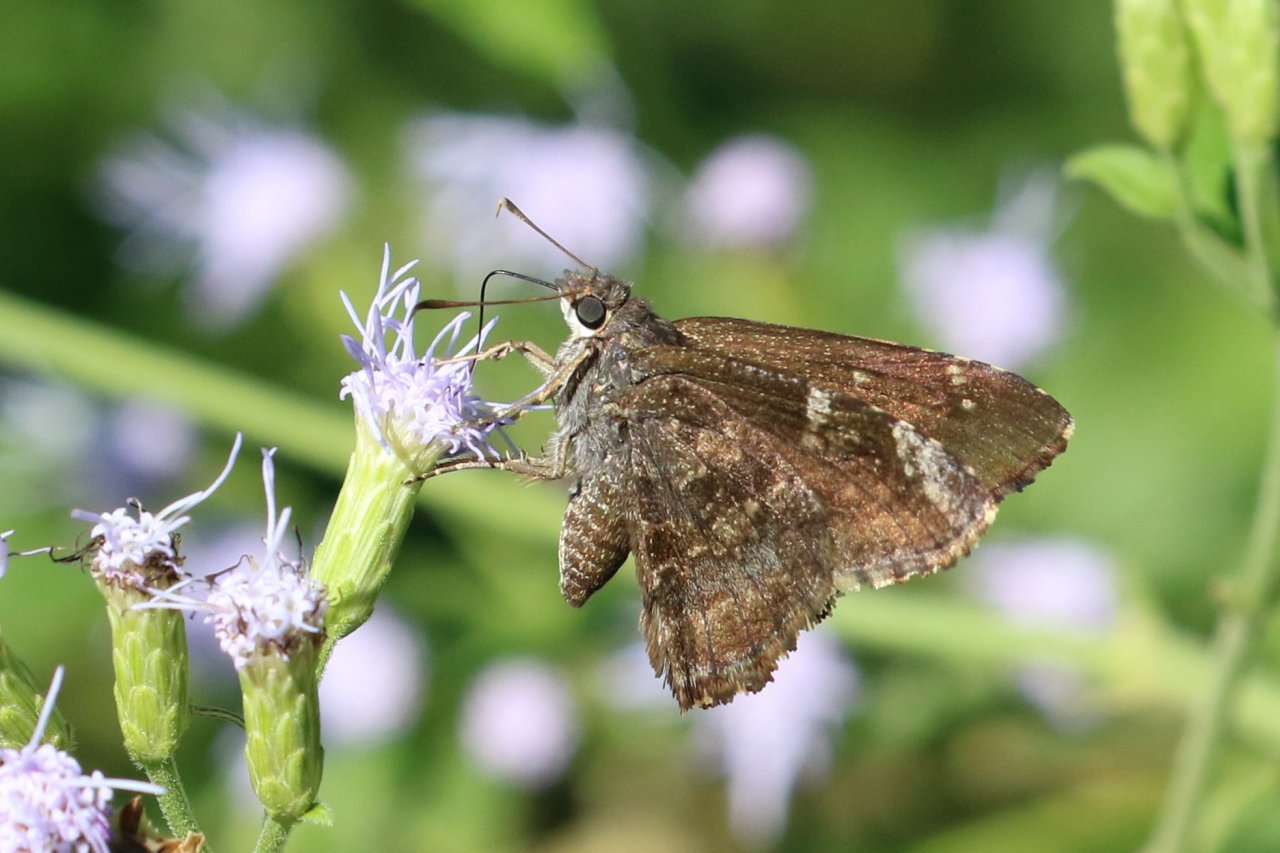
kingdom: Animalia
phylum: Arthropoda
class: Insecta
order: Lepidoptera
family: Hesperiidae
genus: Caicella
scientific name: Caicella calchas
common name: Mimosa Skipper
